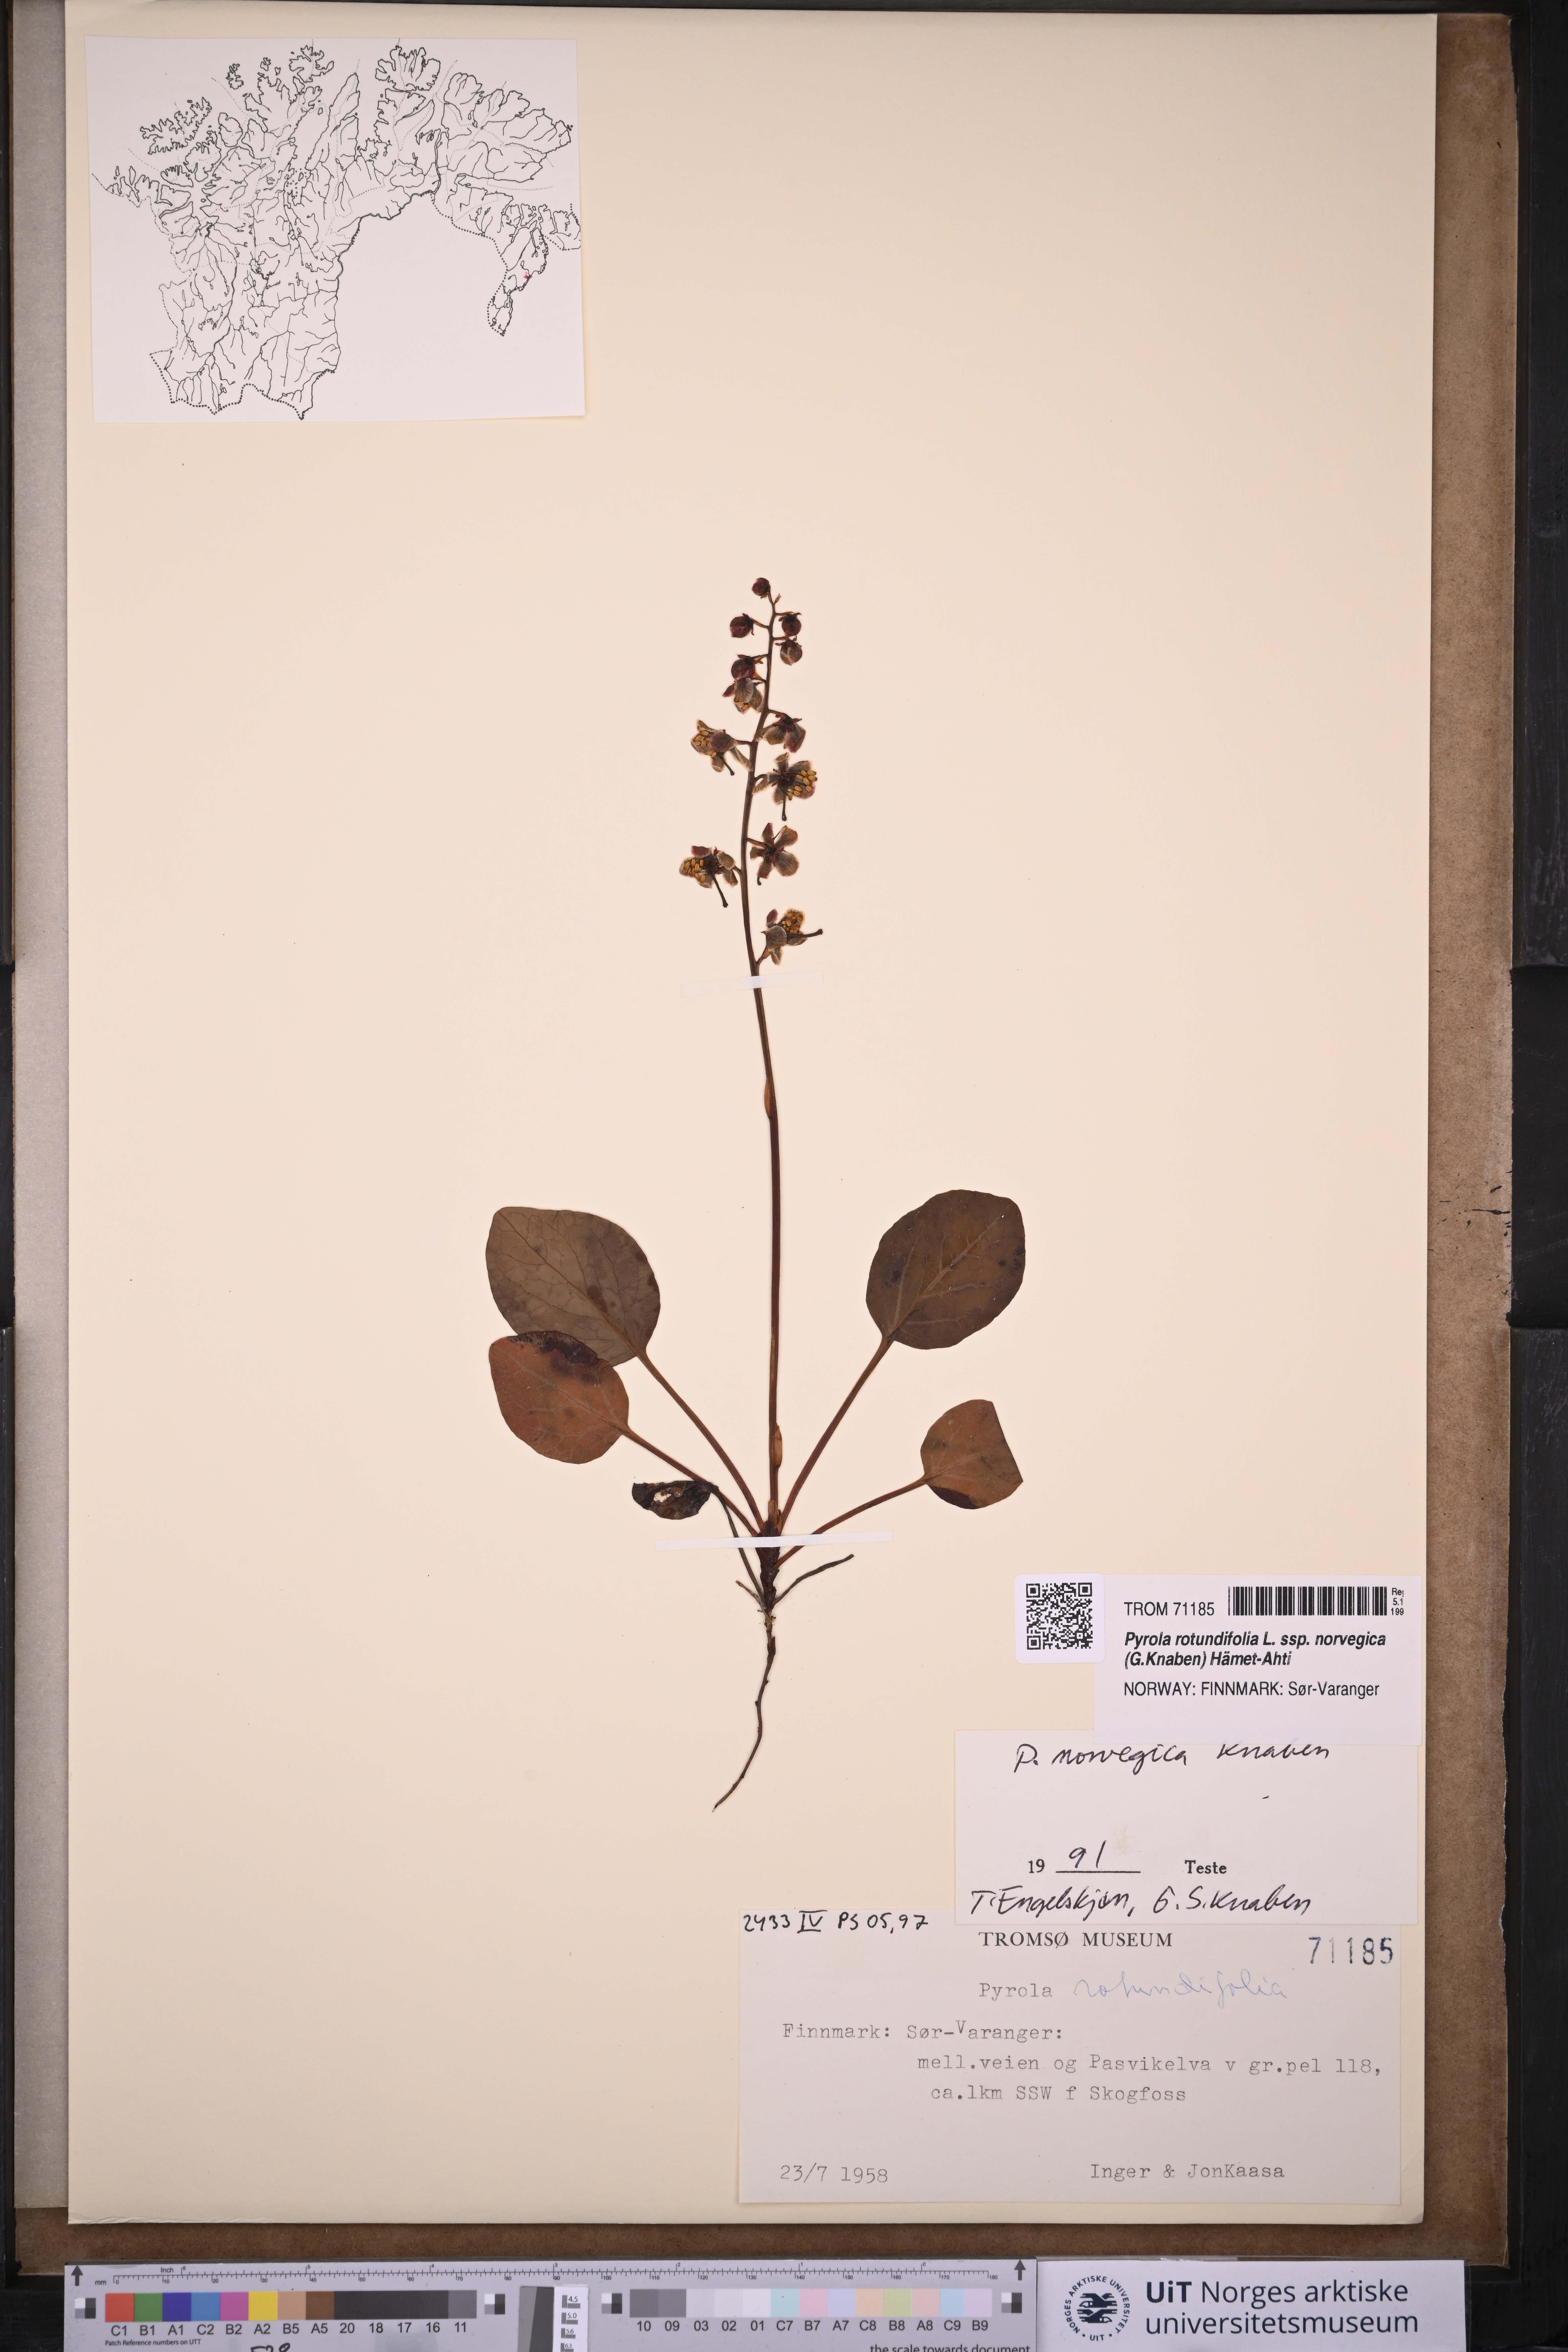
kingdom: Plantae
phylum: Tracheophyta
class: Magnoliopsida
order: Ericales
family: Ericaceae
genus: Pyrola
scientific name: Pyrola rotundifolia
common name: Round-leaved wintergreen
